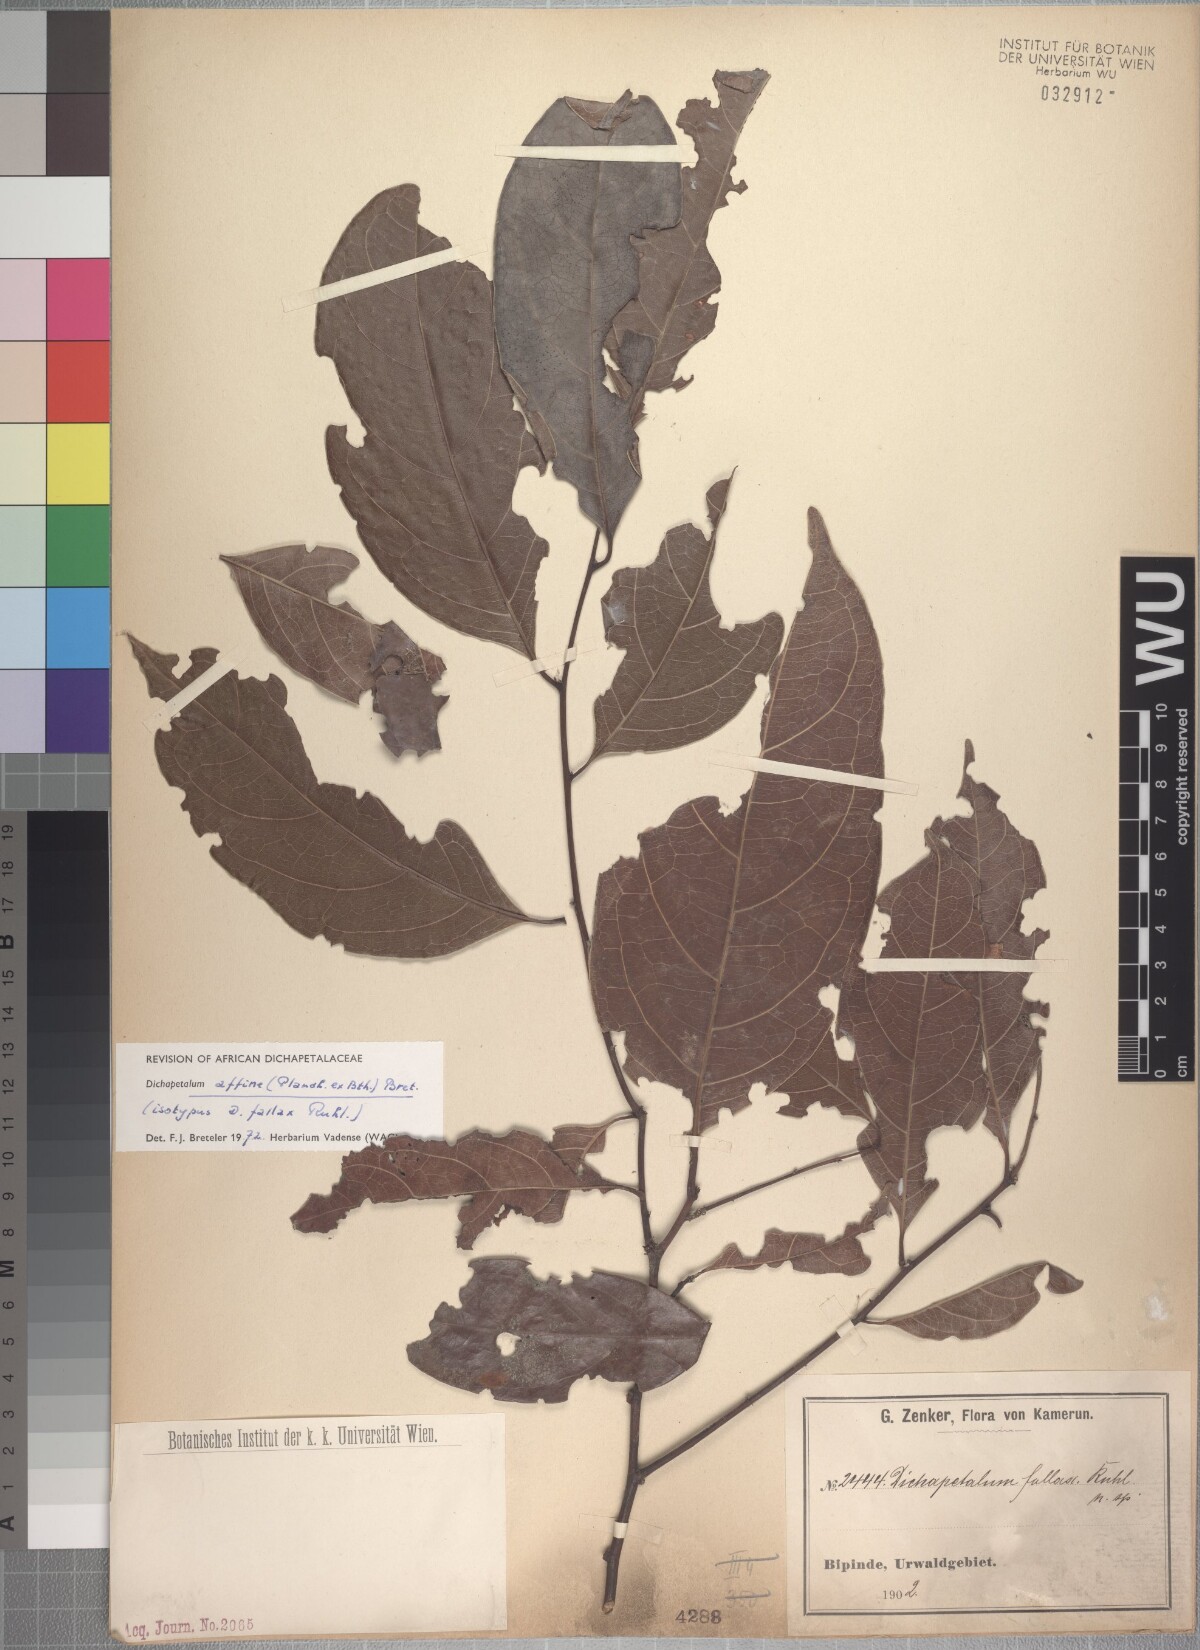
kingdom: Plantae
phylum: Tracheophyta
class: Magnoliopsida
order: Malpighiales
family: Dichapetalaceae
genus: Dichapetalum
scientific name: Dichapetalum affine
